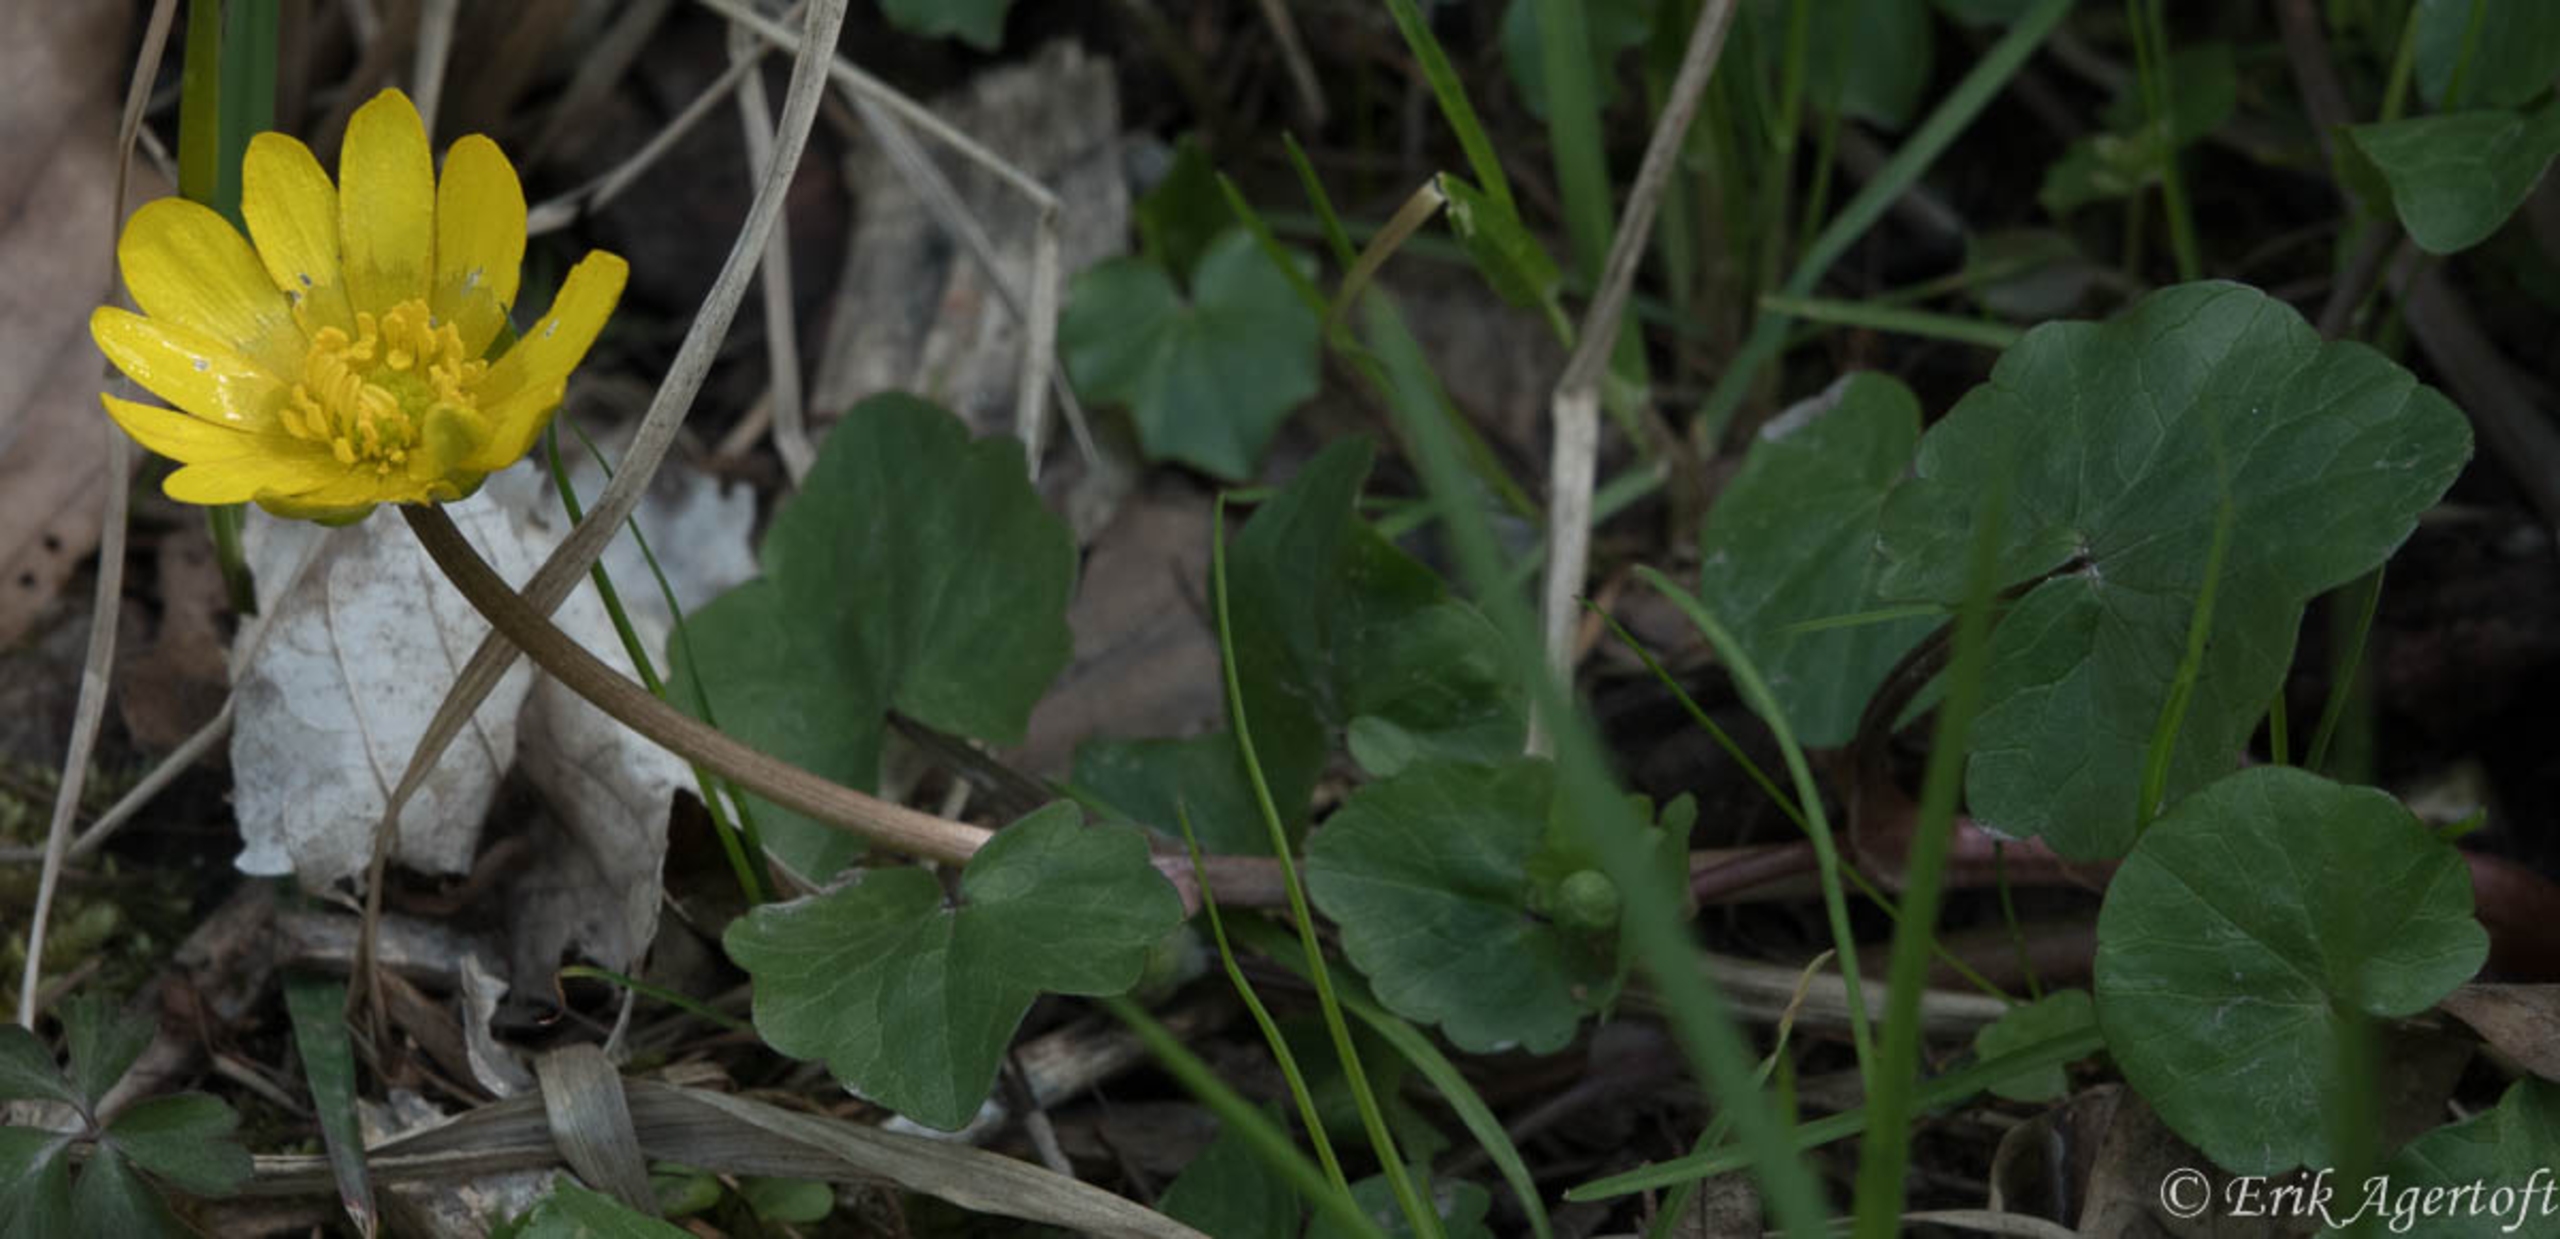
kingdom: Plantae
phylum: Tracheophyta
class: Magnoliopsida
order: Ranunculales
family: Ranunculaceae
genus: Ficaria
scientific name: Ficaria verna
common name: Vorterod
